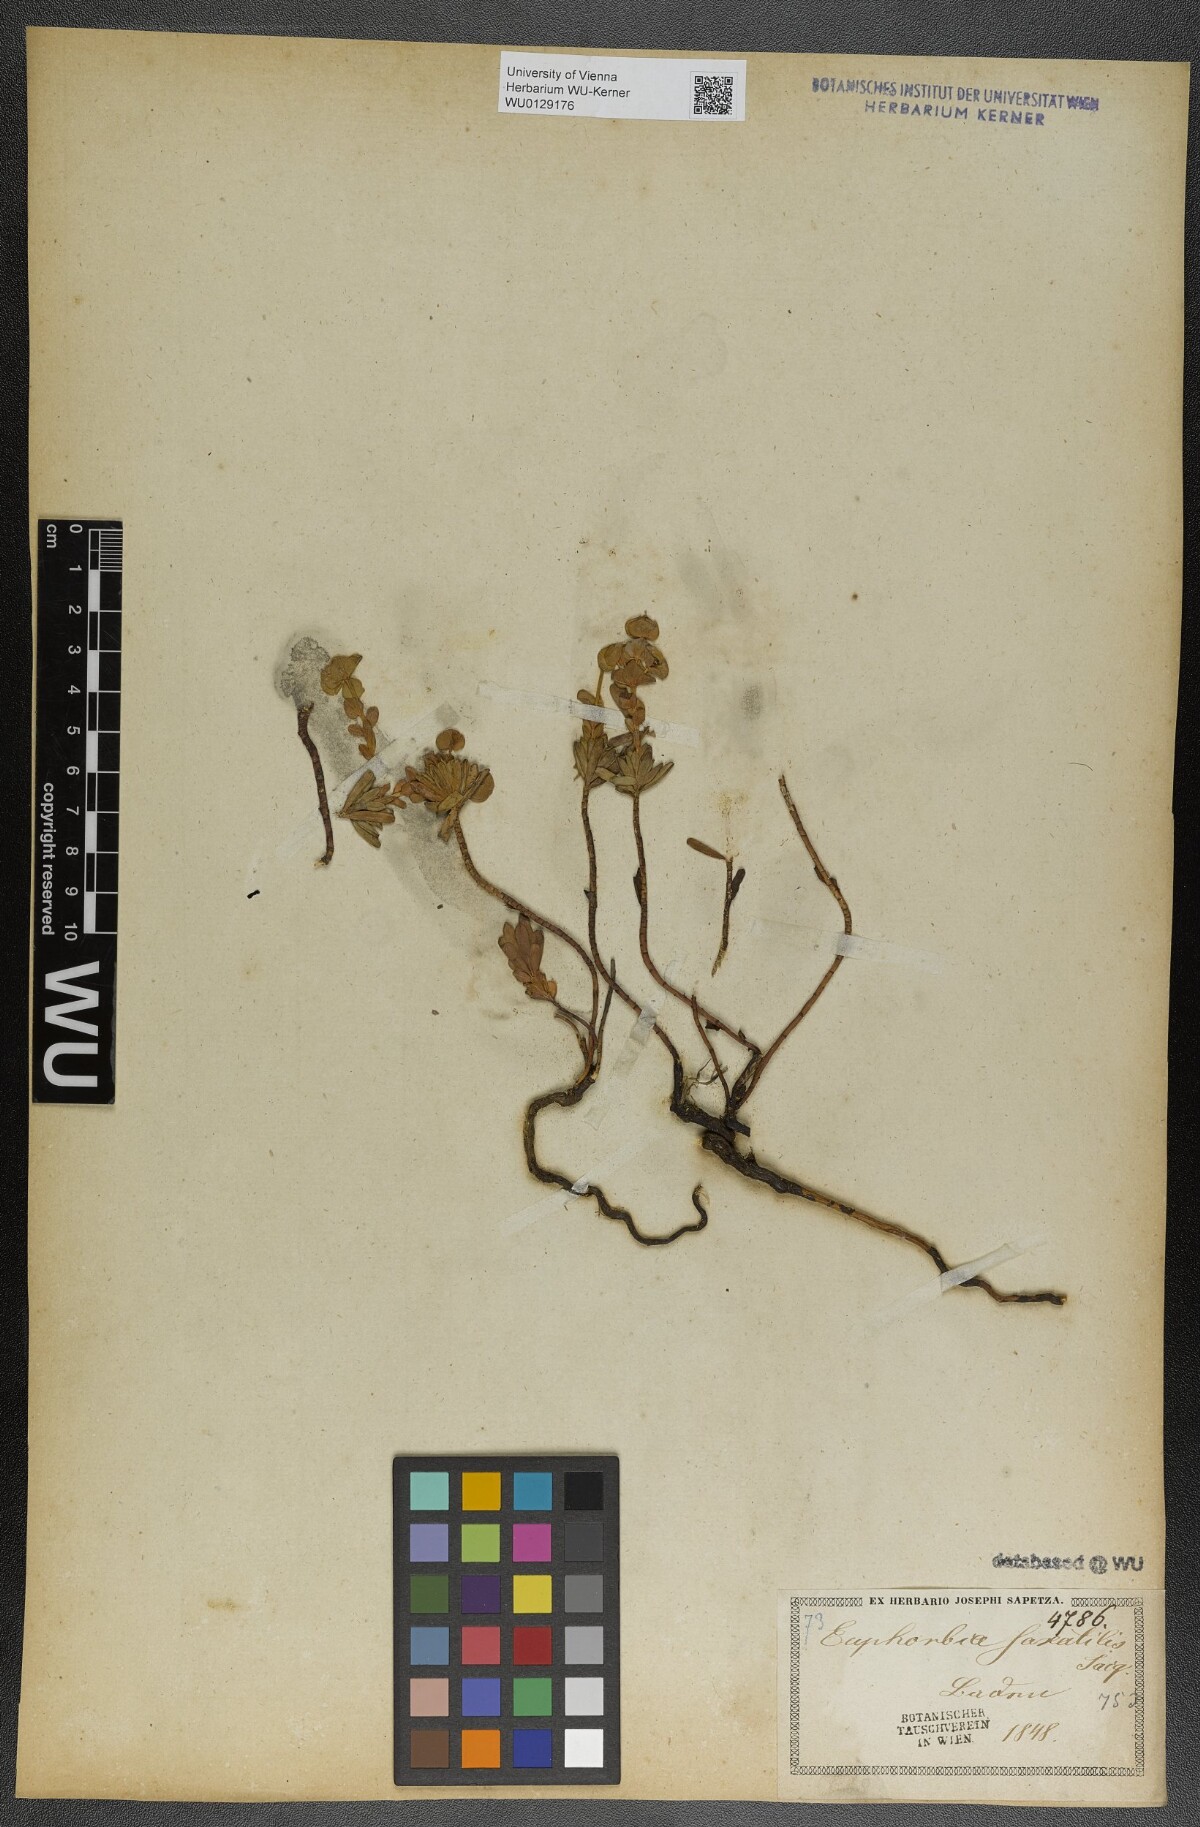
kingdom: Plantae
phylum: Tracheophyta
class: Magnoliopsida
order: Malpighiales
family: Euphorbiaceae
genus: Euphorbia
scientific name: Euphorbia saxatilis
